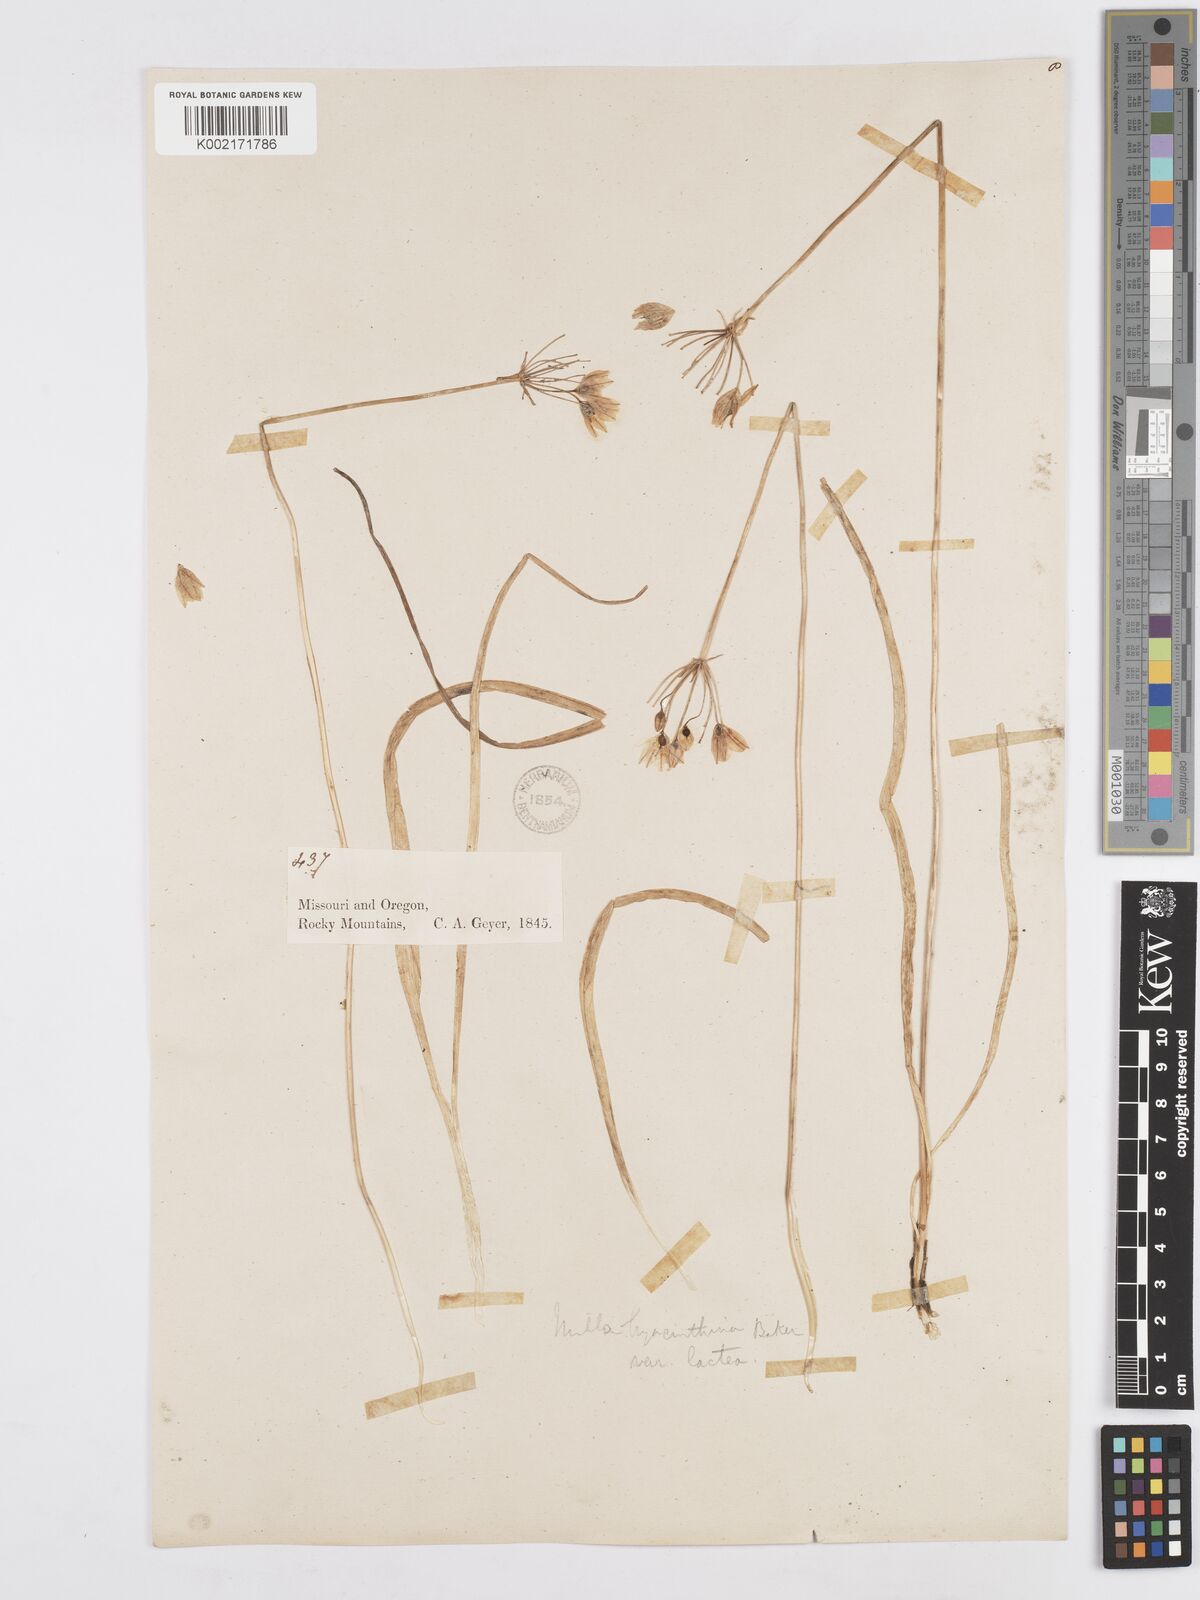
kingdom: Plantae
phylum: Tracheophyta
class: Liliopsida
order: Asparagales
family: Asparagaceae
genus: Triteleia
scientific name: Triteleia hyacinthina
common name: White brodiaea
